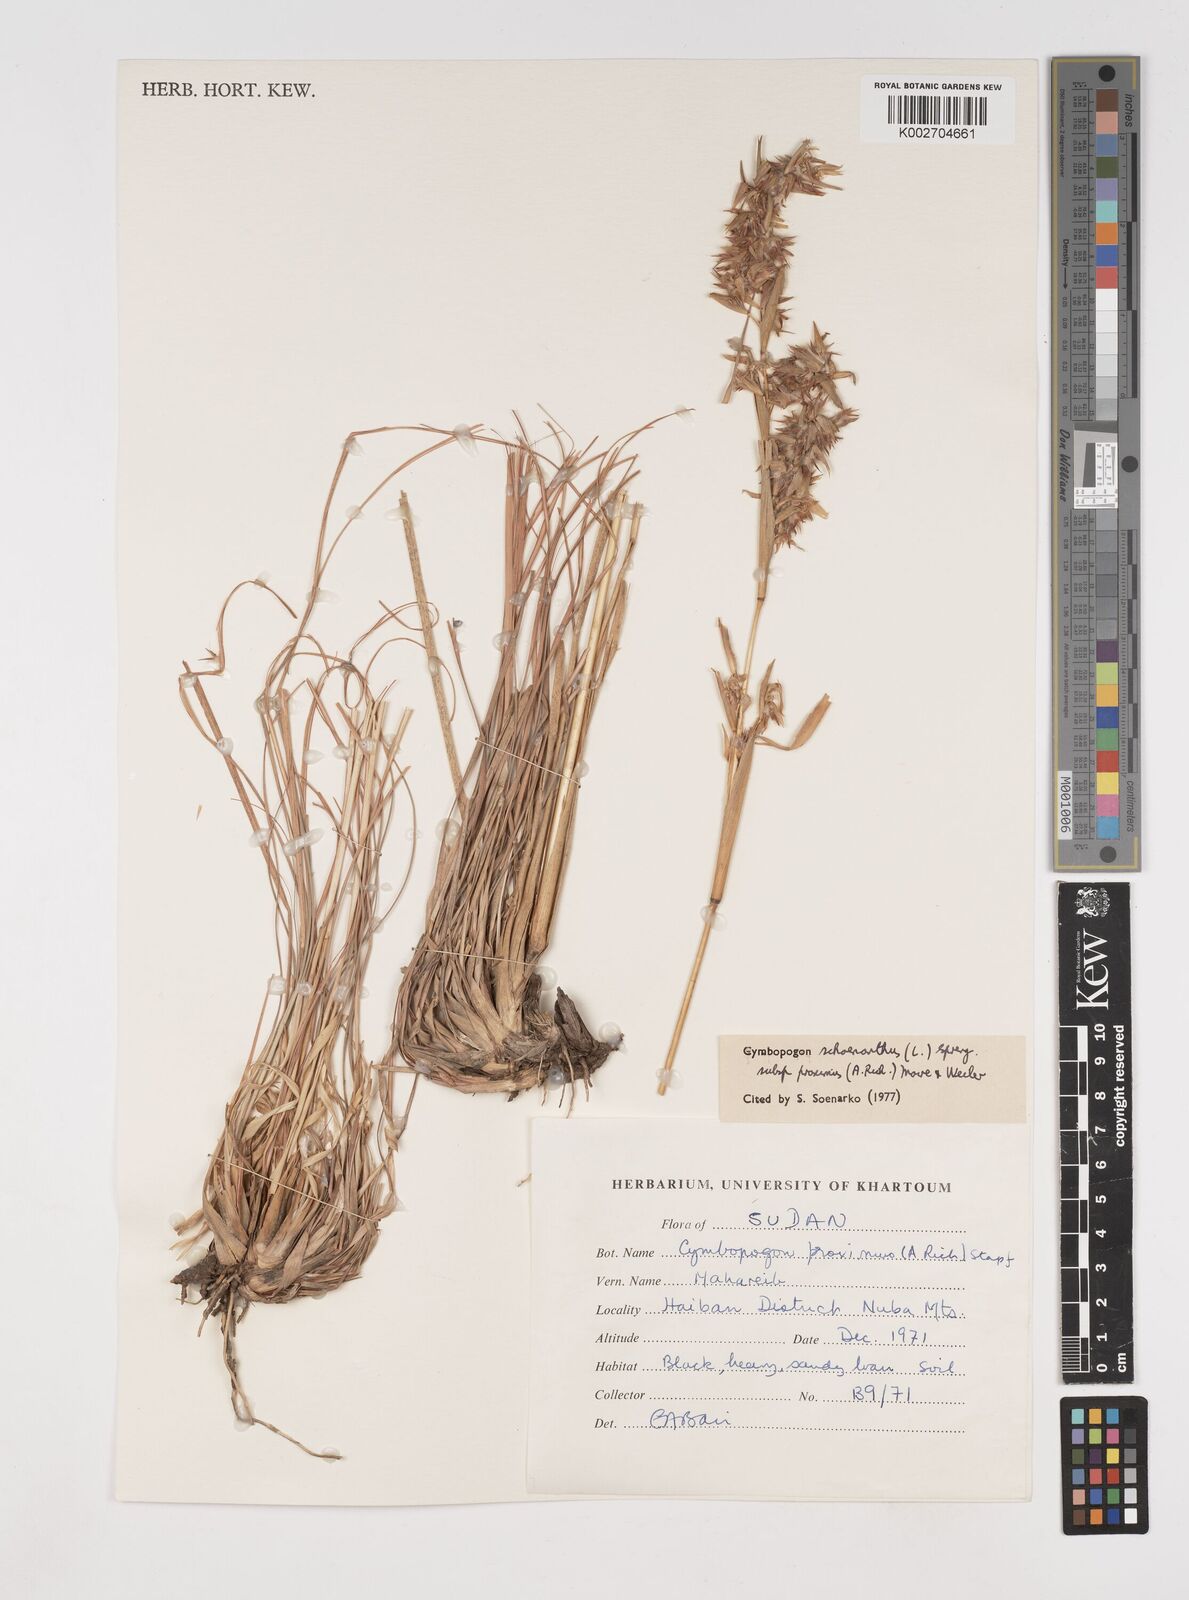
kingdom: Plantae
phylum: Tracheophyta
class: Liliopsida
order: Poales
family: Poaceae
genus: Cymbopogon
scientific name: Cymbopogon schoenanthus
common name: Geranium grass
